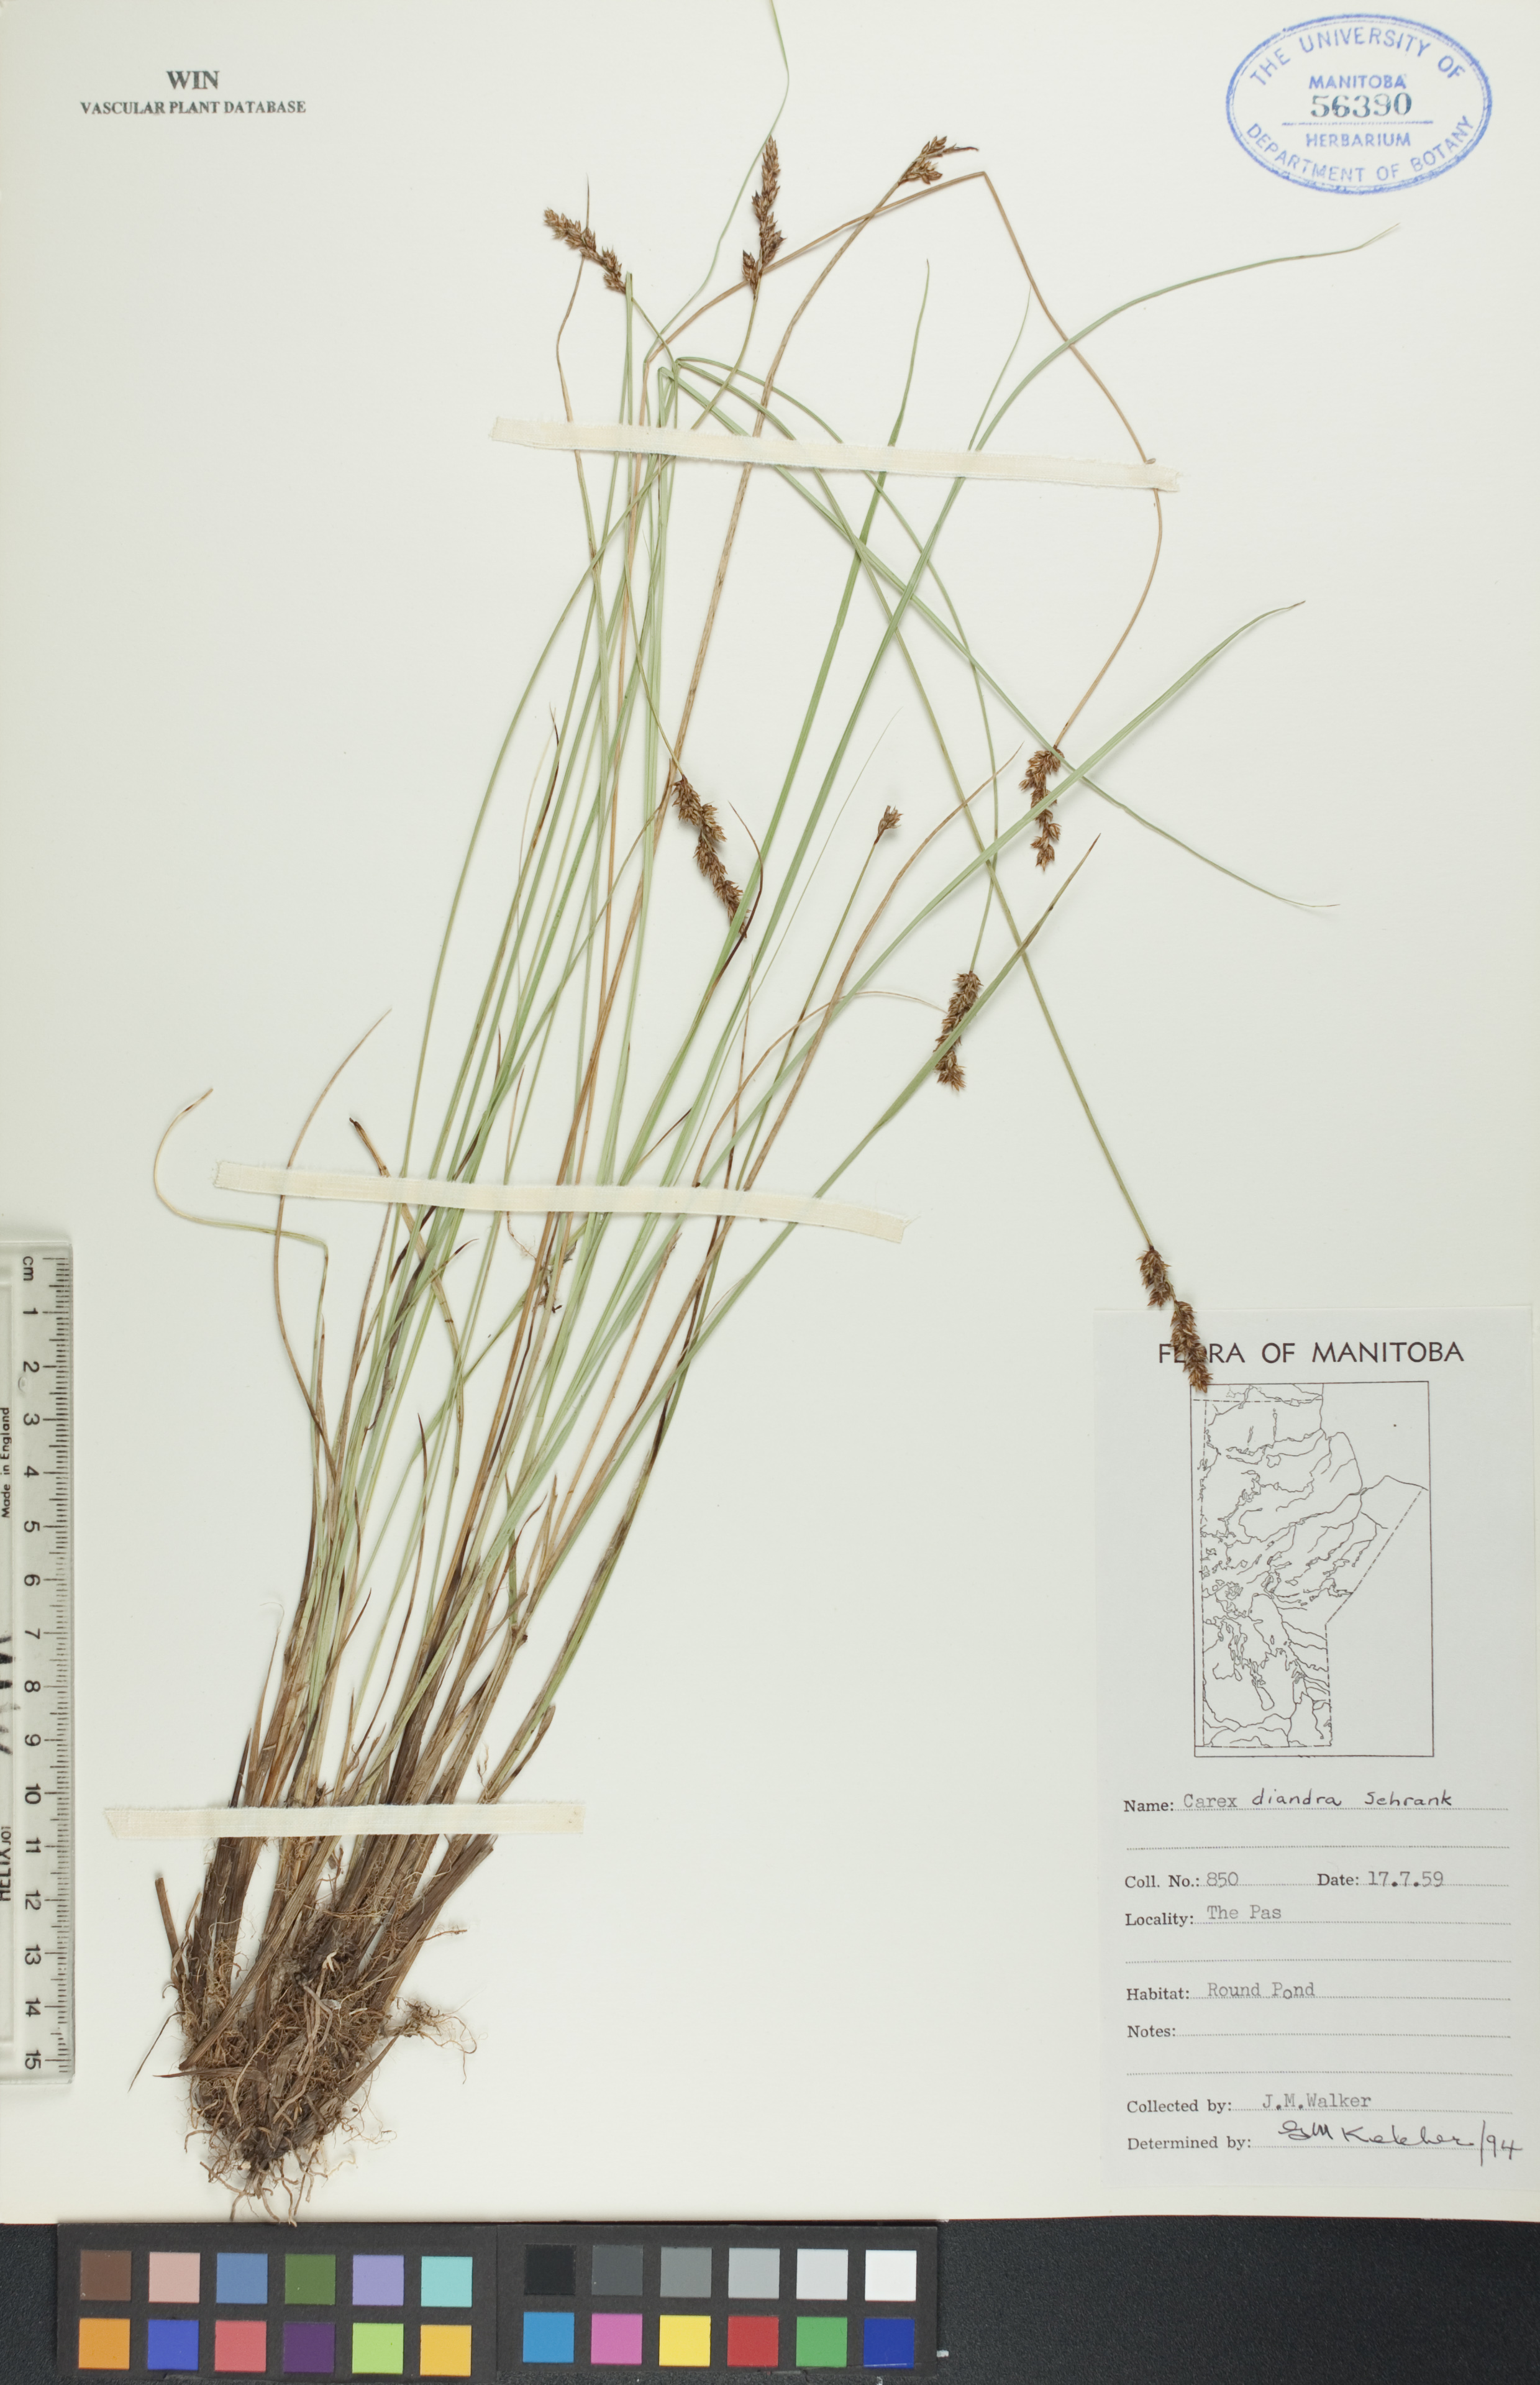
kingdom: Plantae
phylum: Tracheophyta
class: Liliopsida
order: Poales
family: Cyperaceae
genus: Carex
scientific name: Carex diandra
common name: Lesser tussock-sedge
